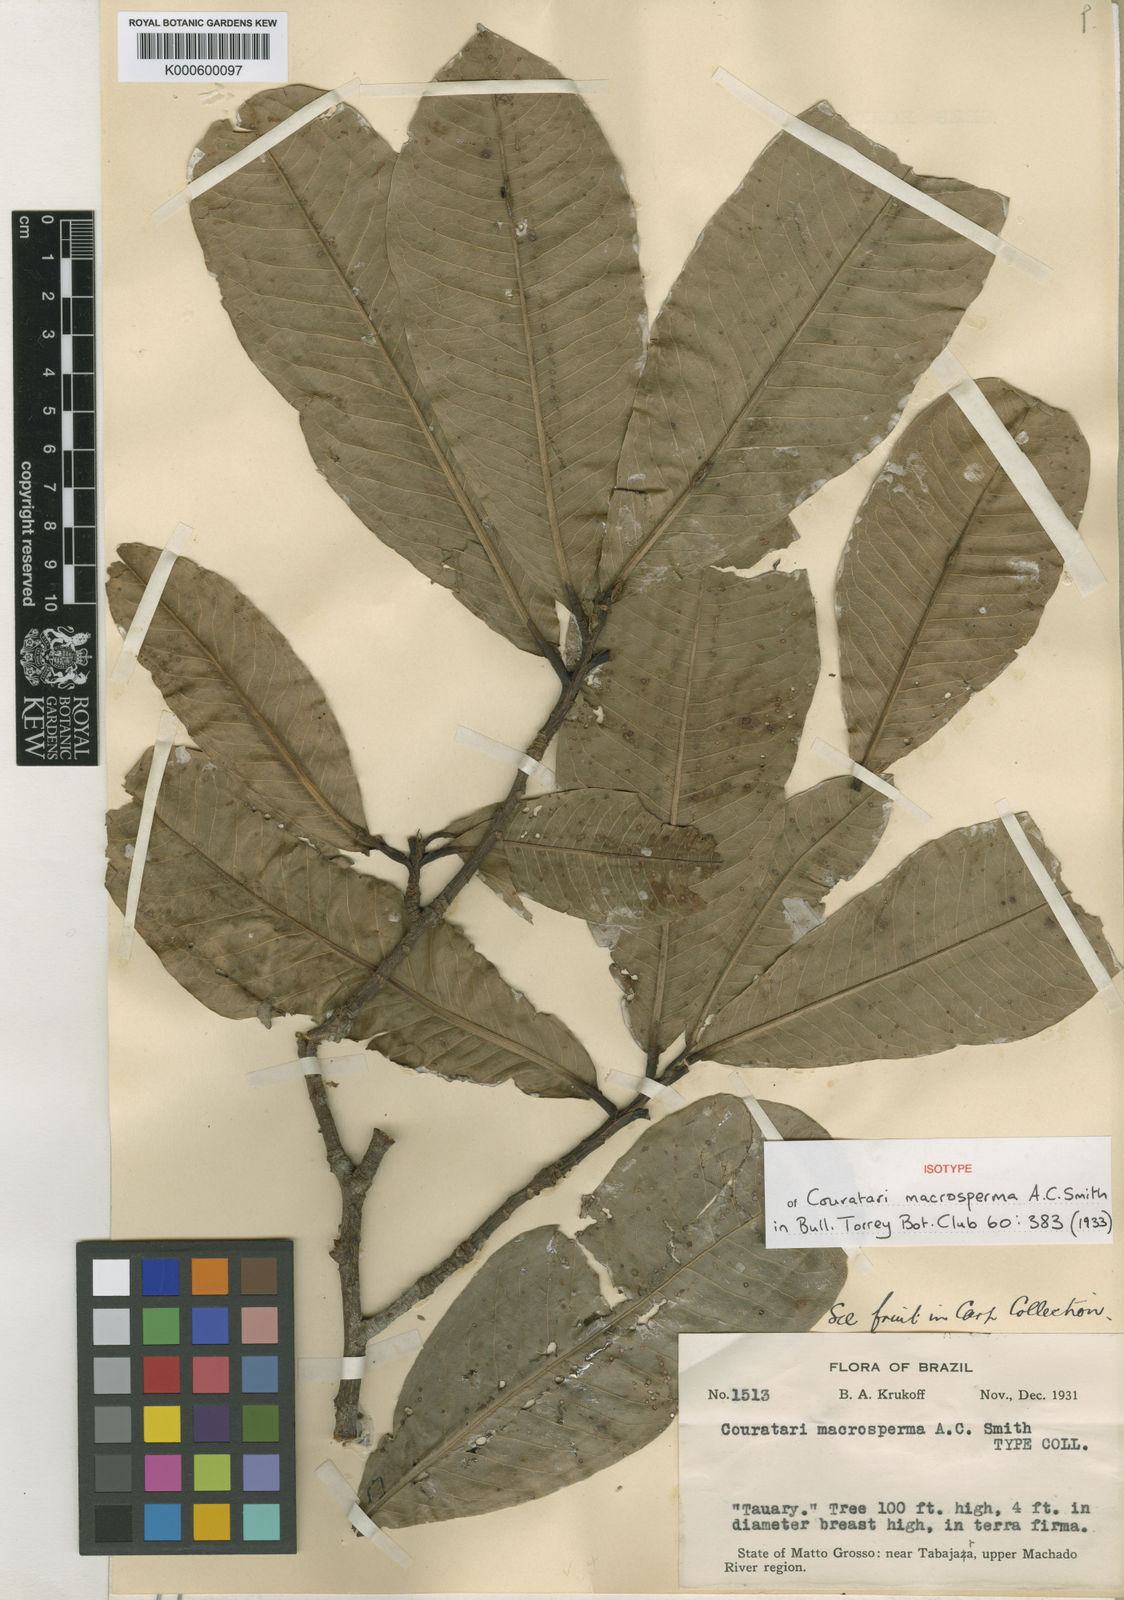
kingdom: Plantae
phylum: Tracheophyta
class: Magnoliopsida
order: Ericales
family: Lecythidaceae
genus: Couratari
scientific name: Couratari macrosperma
